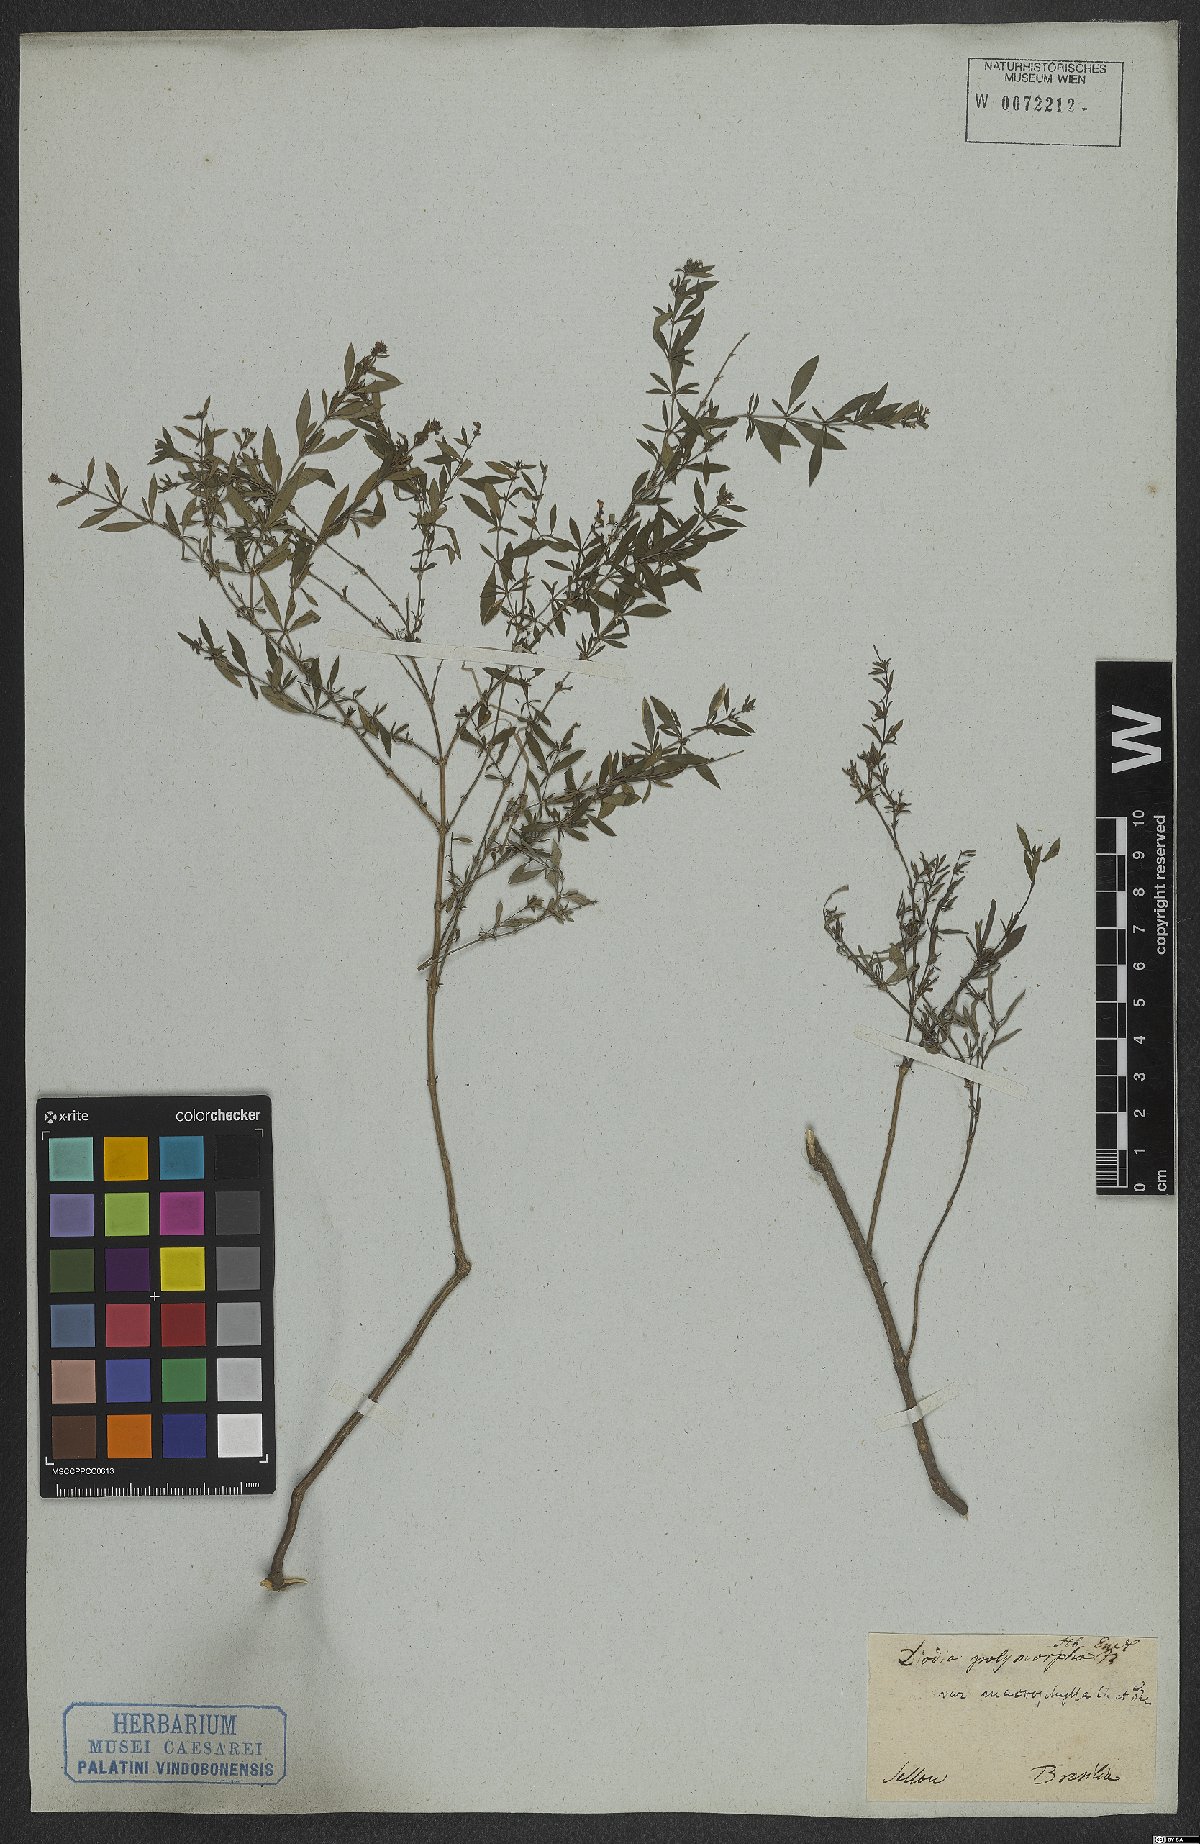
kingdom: Plantae
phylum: Tracheophyta
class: Magnoliopsida
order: Gentianales
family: Rubiaceae
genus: Galianthe
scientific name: Galianthe brasiliensis
